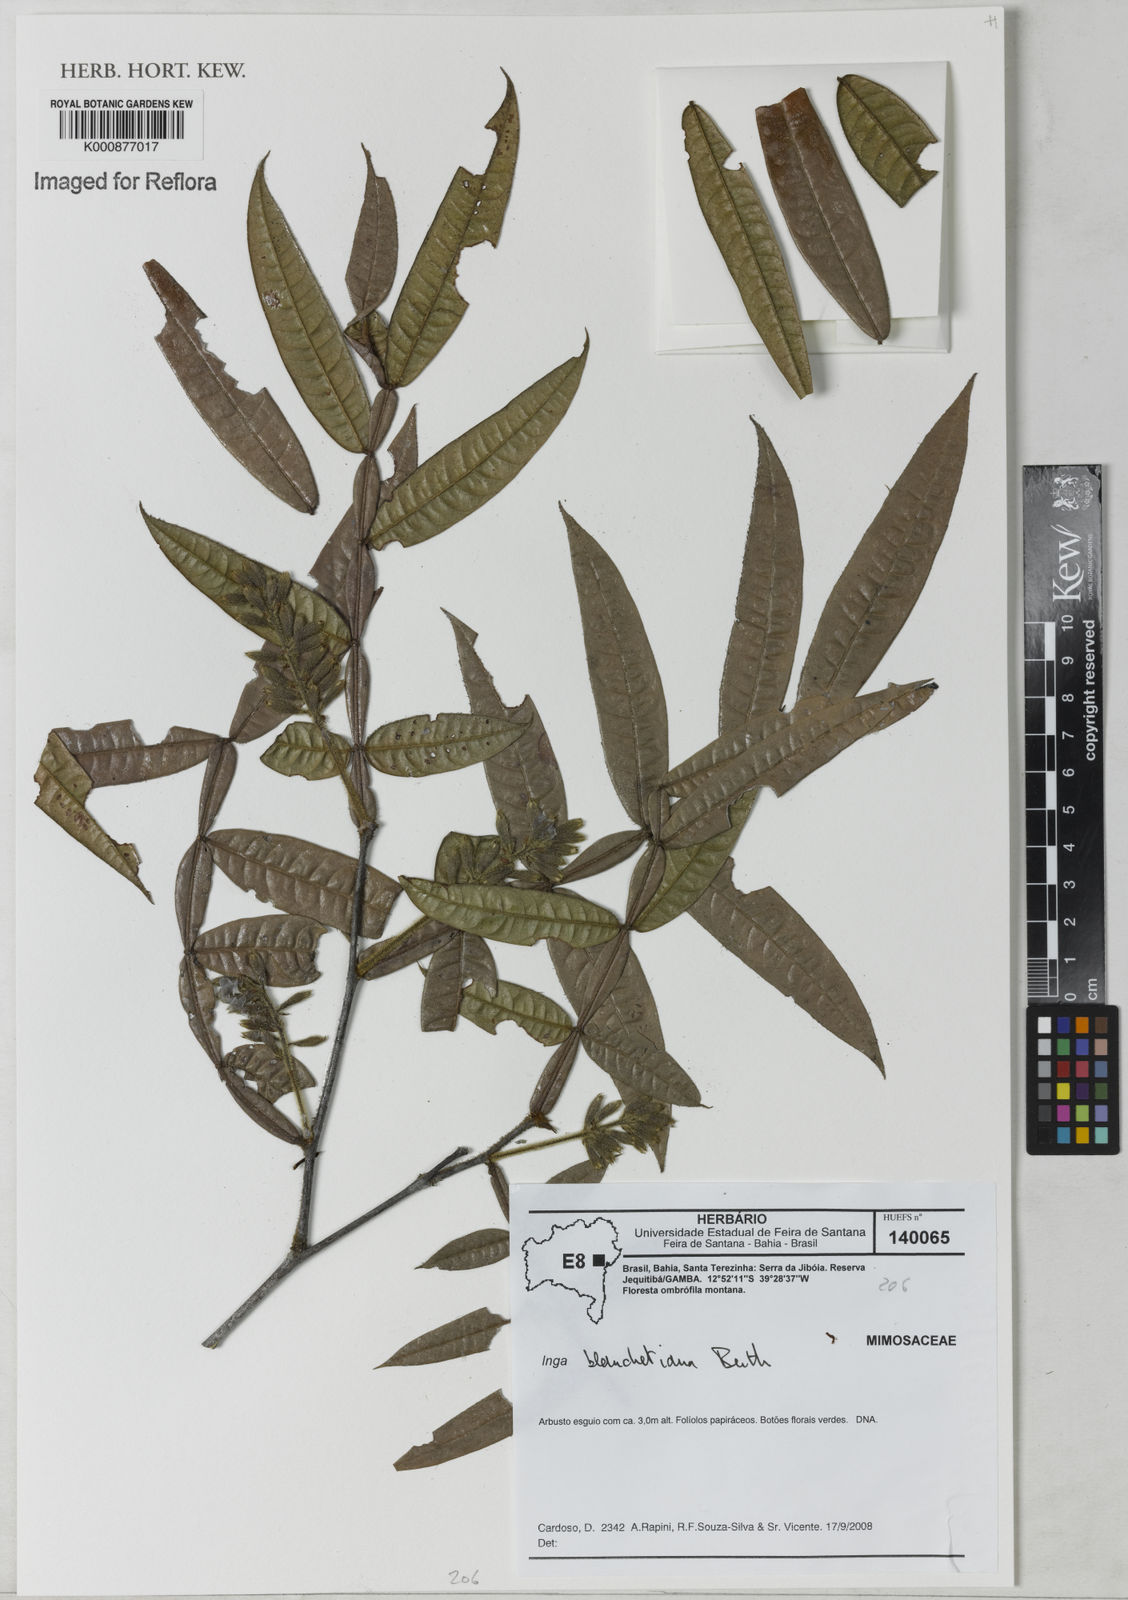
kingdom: Plantae
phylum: Tracheophyta
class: Magnoliopsida
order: Fabales
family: Fabaceae
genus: Inga
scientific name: Inga blanchetiana
